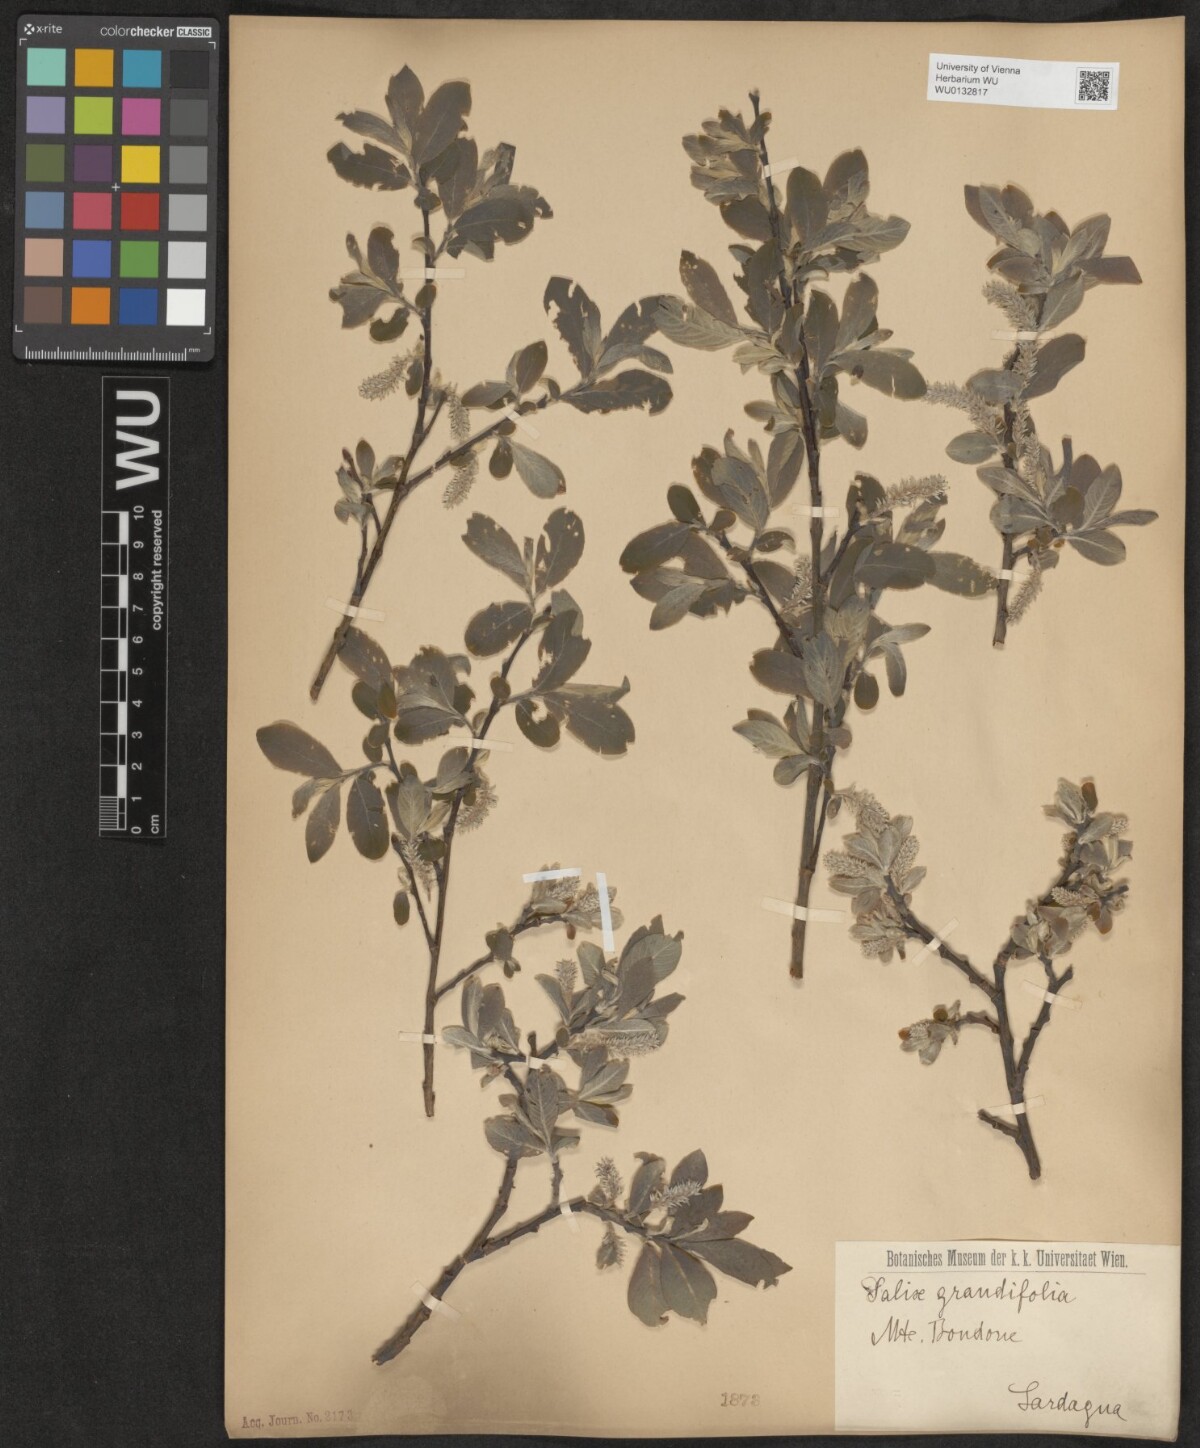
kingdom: Plantae
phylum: Tracheophyta
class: Magnoliopsida
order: Malpighiales
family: Salicaceae
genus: Salix
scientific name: Salix appendiculata
